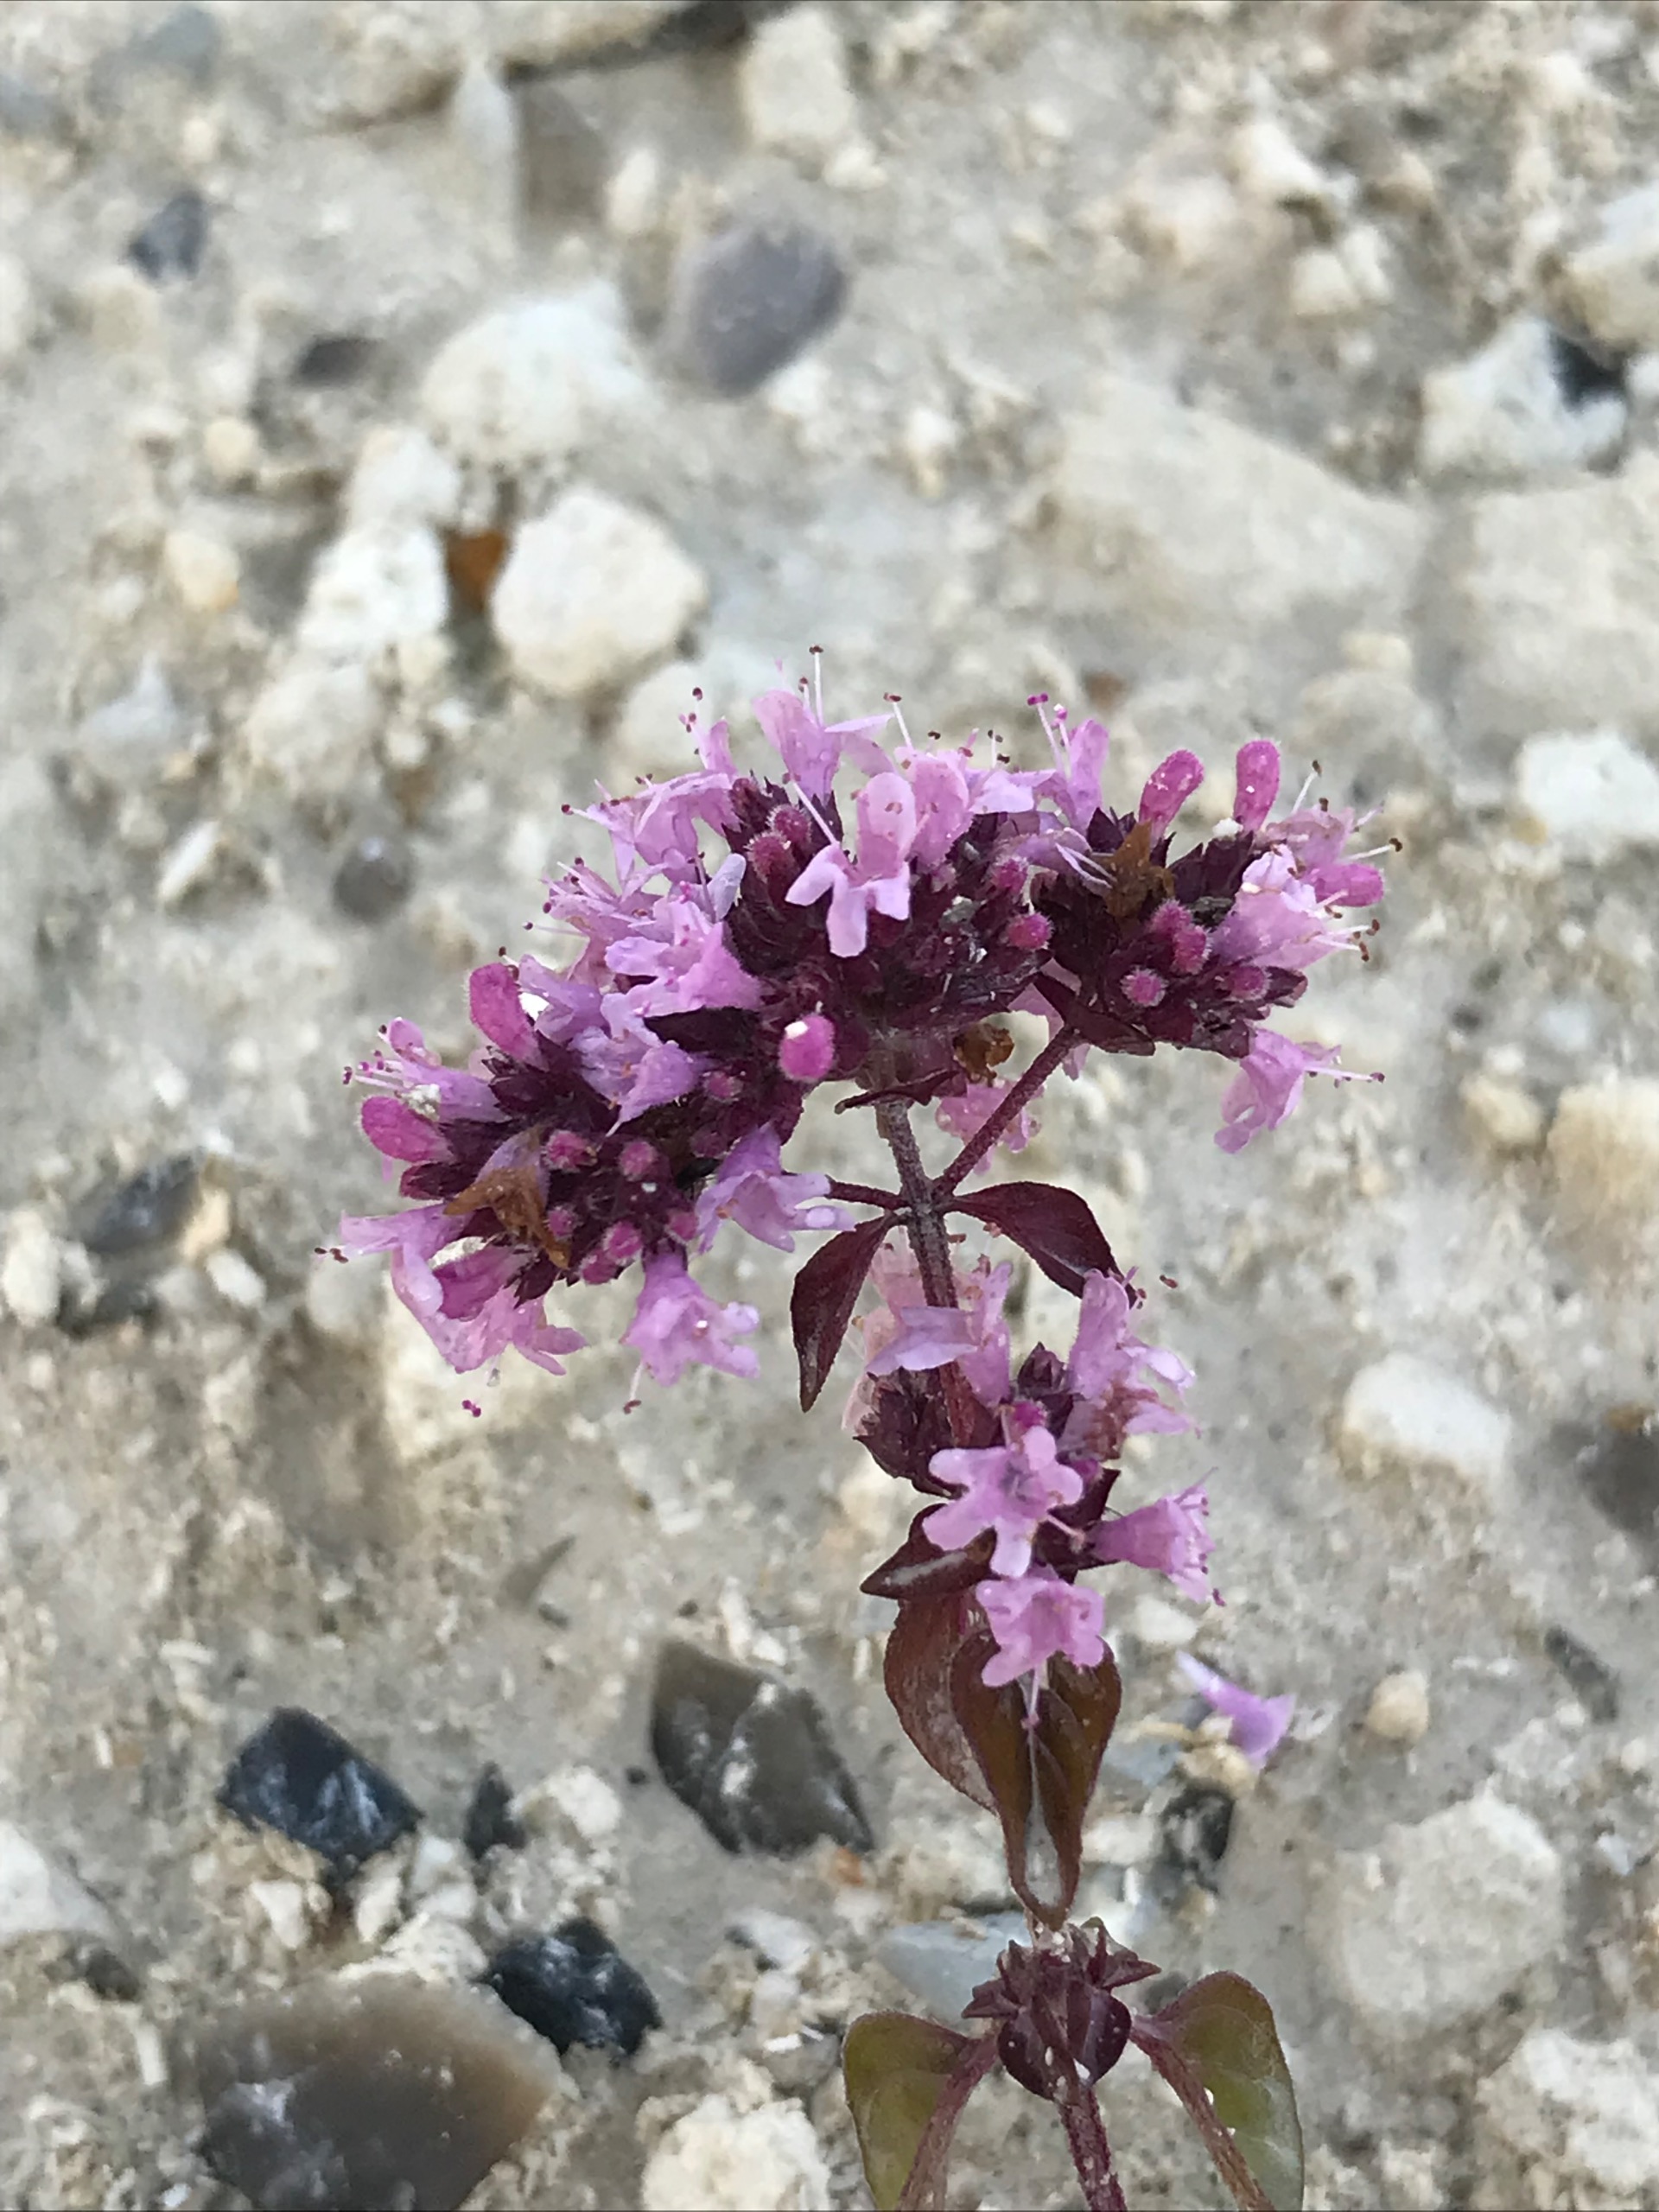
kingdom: Plantae
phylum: Tracheophyta
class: Magnoliopsida
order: Lamiales
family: Lamiaceae
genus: Origanum
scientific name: Origanum vulgare
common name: Merian
